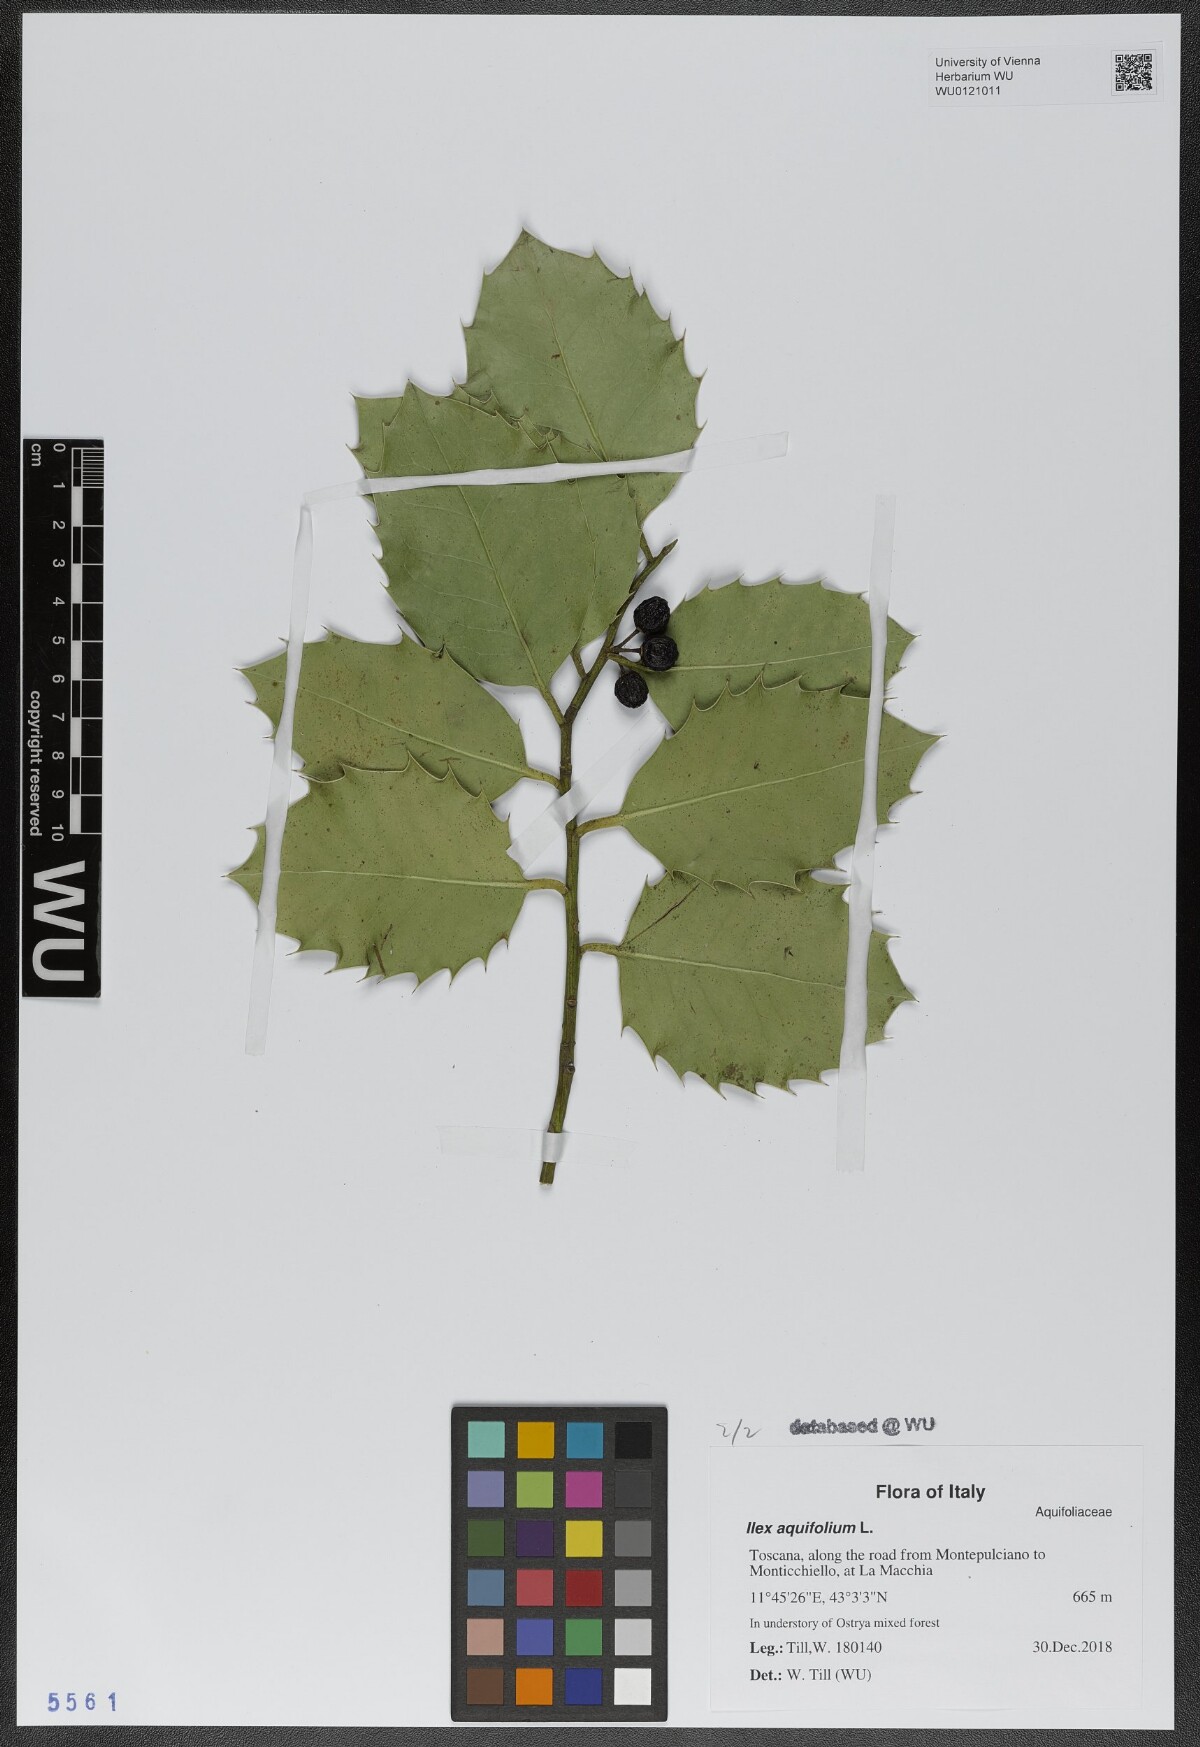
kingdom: Plantae
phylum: Tracheophyta
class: Magnoliopsida
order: Aquifoliales
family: Aquifoliaceae
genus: Ilex
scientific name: Ilex aquifolium
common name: English holly
